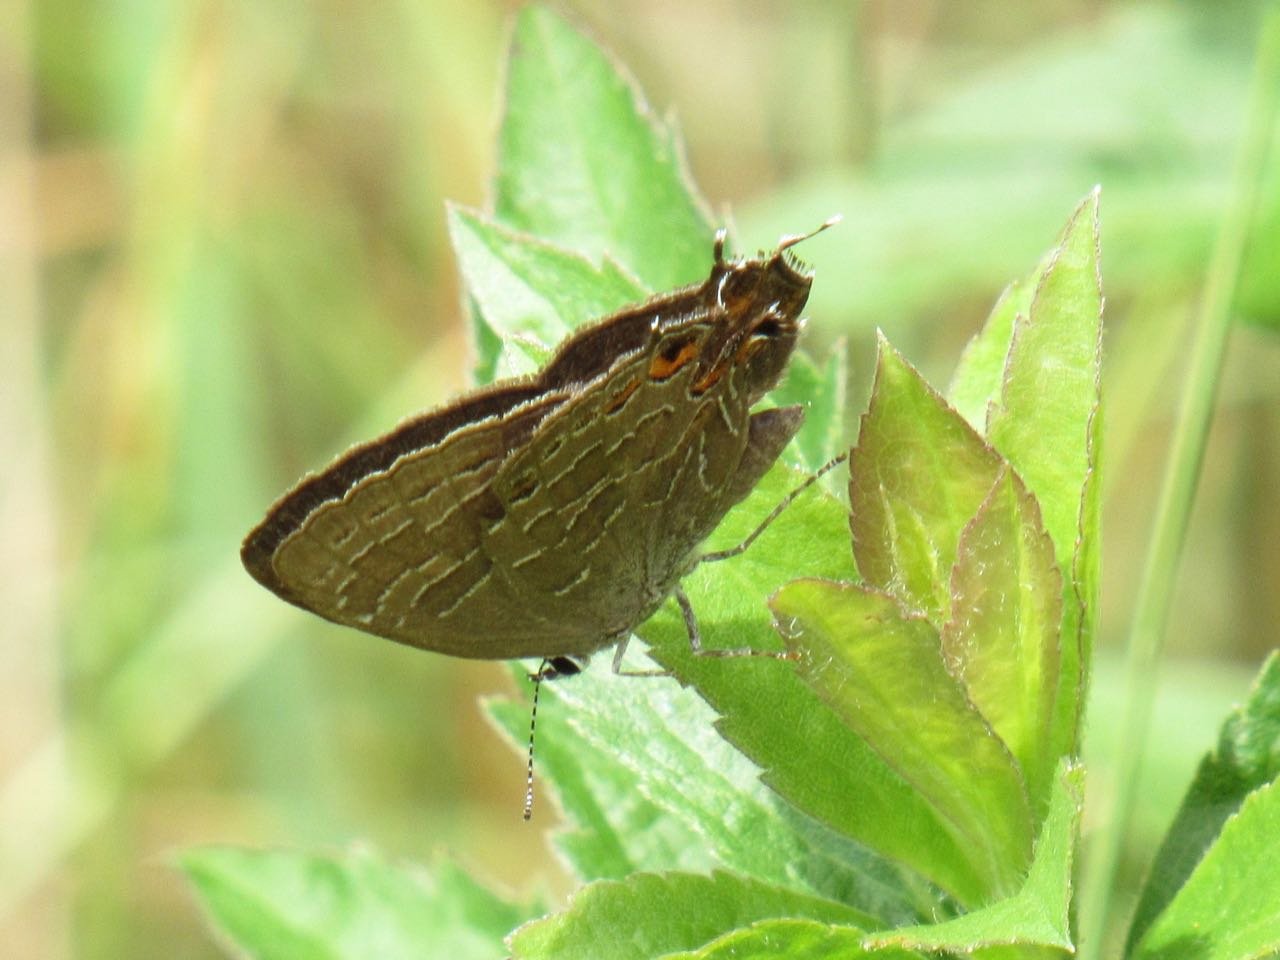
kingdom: Animalia
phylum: Arthropoda
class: Insecta
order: Lepidoptera
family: Lycaenidae
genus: Satyrium
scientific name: Satyrium liparops
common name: Striped Hairstreak
